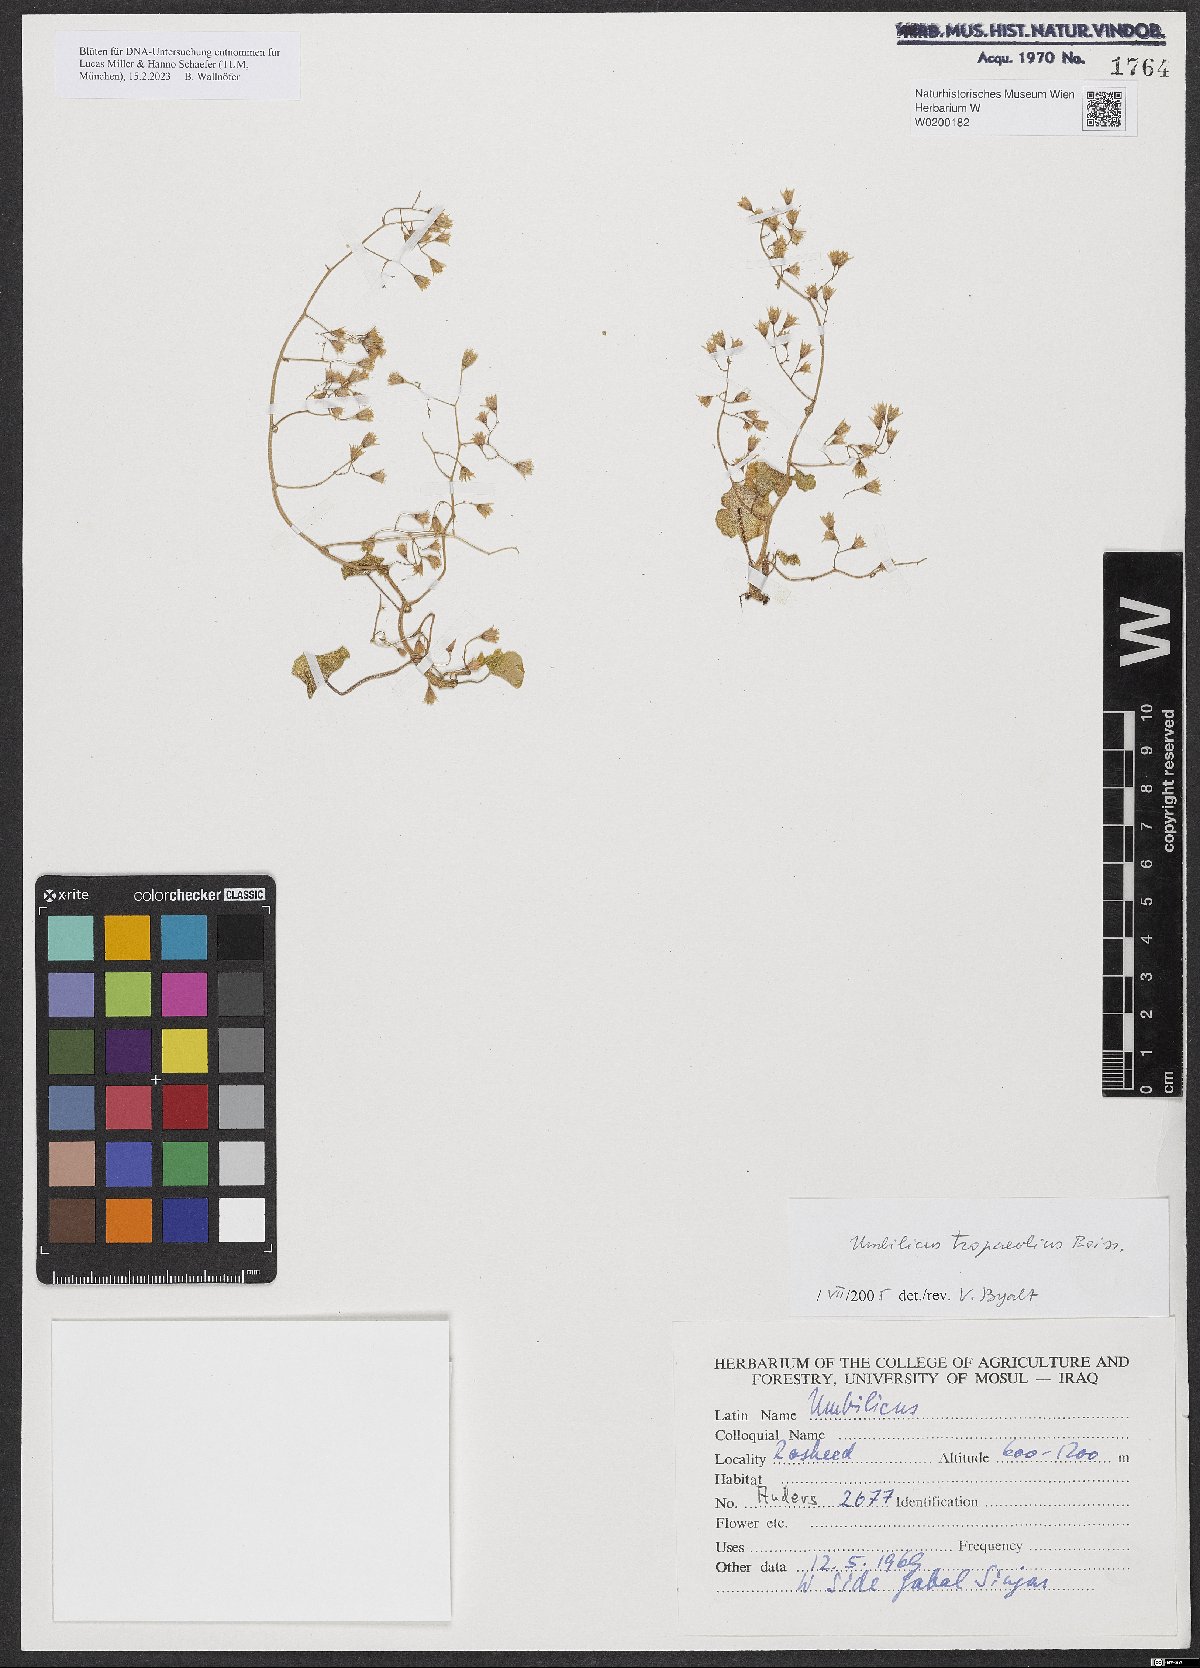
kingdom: Plantae
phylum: Tracheophyta
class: Magnoliopsida
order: Saxifragales
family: Crassulaceae
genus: Umbilicus
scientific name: Umbilicus tropaeolifolius
